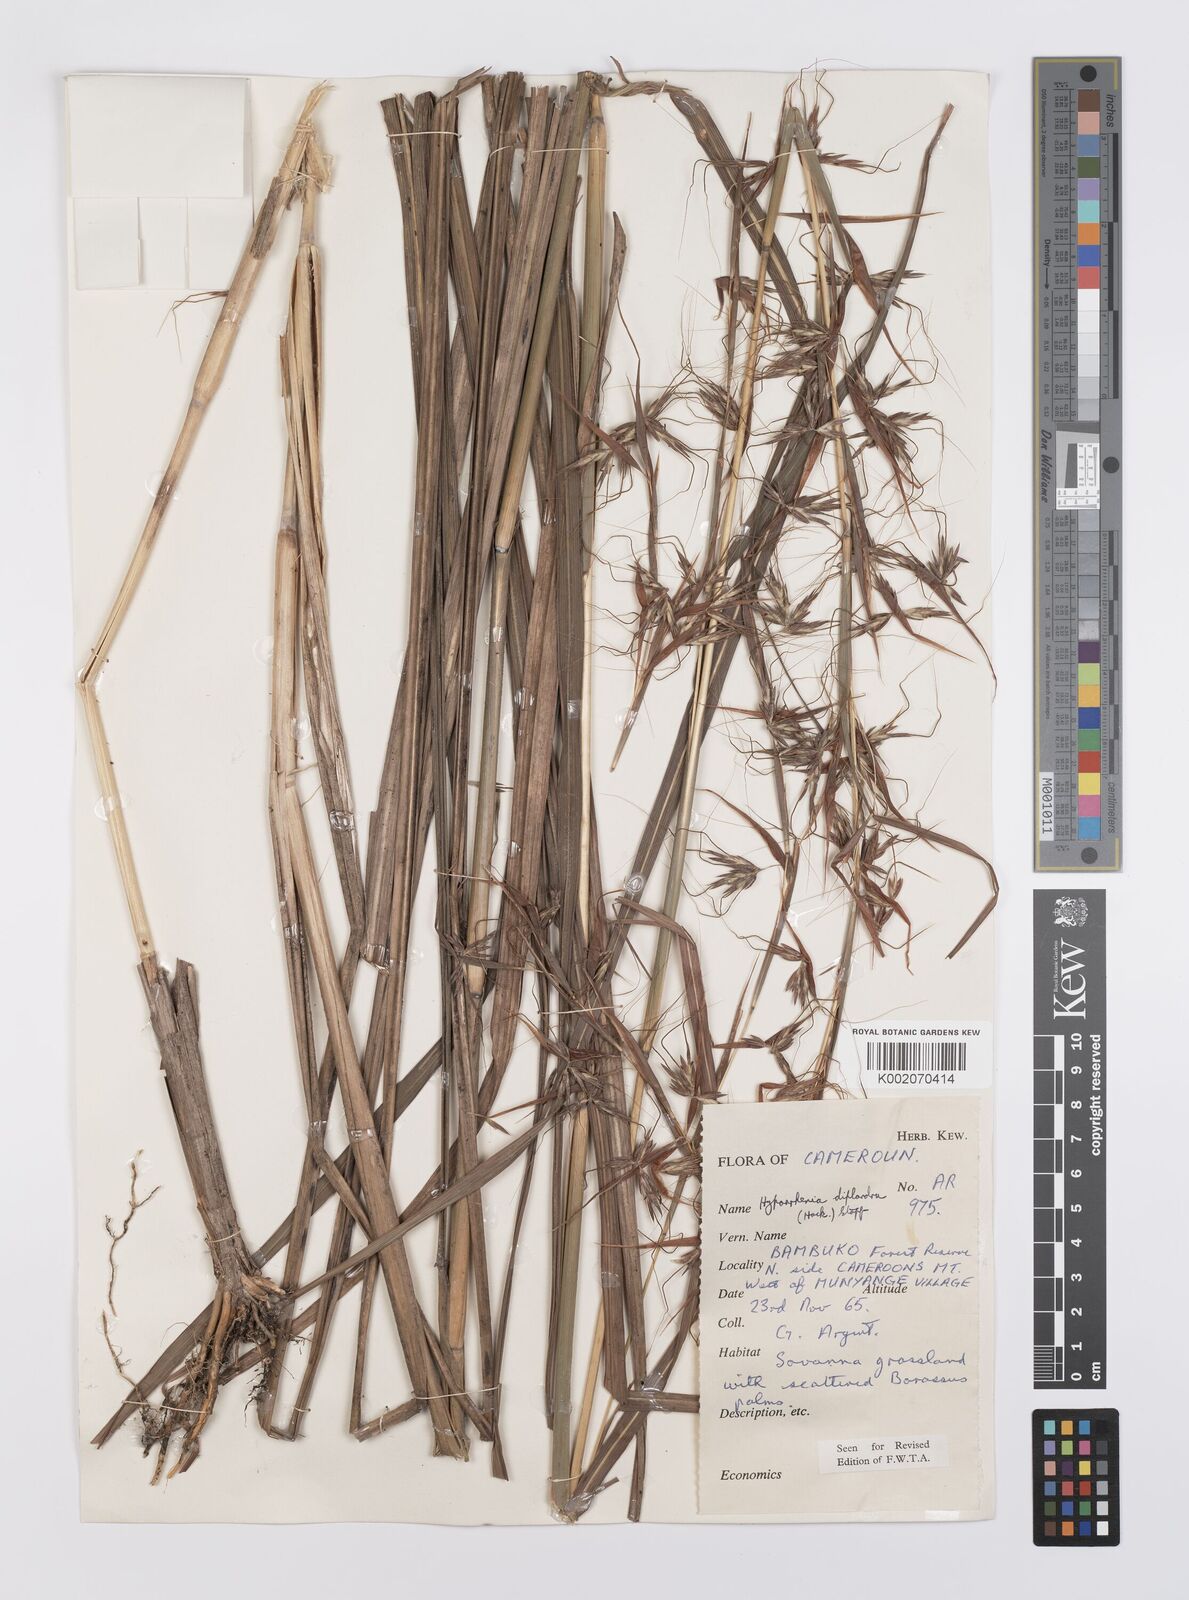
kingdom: Plantae
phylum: Tracheophyta
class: Liliopsida
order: Poales
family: Poaceae
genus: Hyparrhenia
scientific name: Hyparrhenia diplandra
